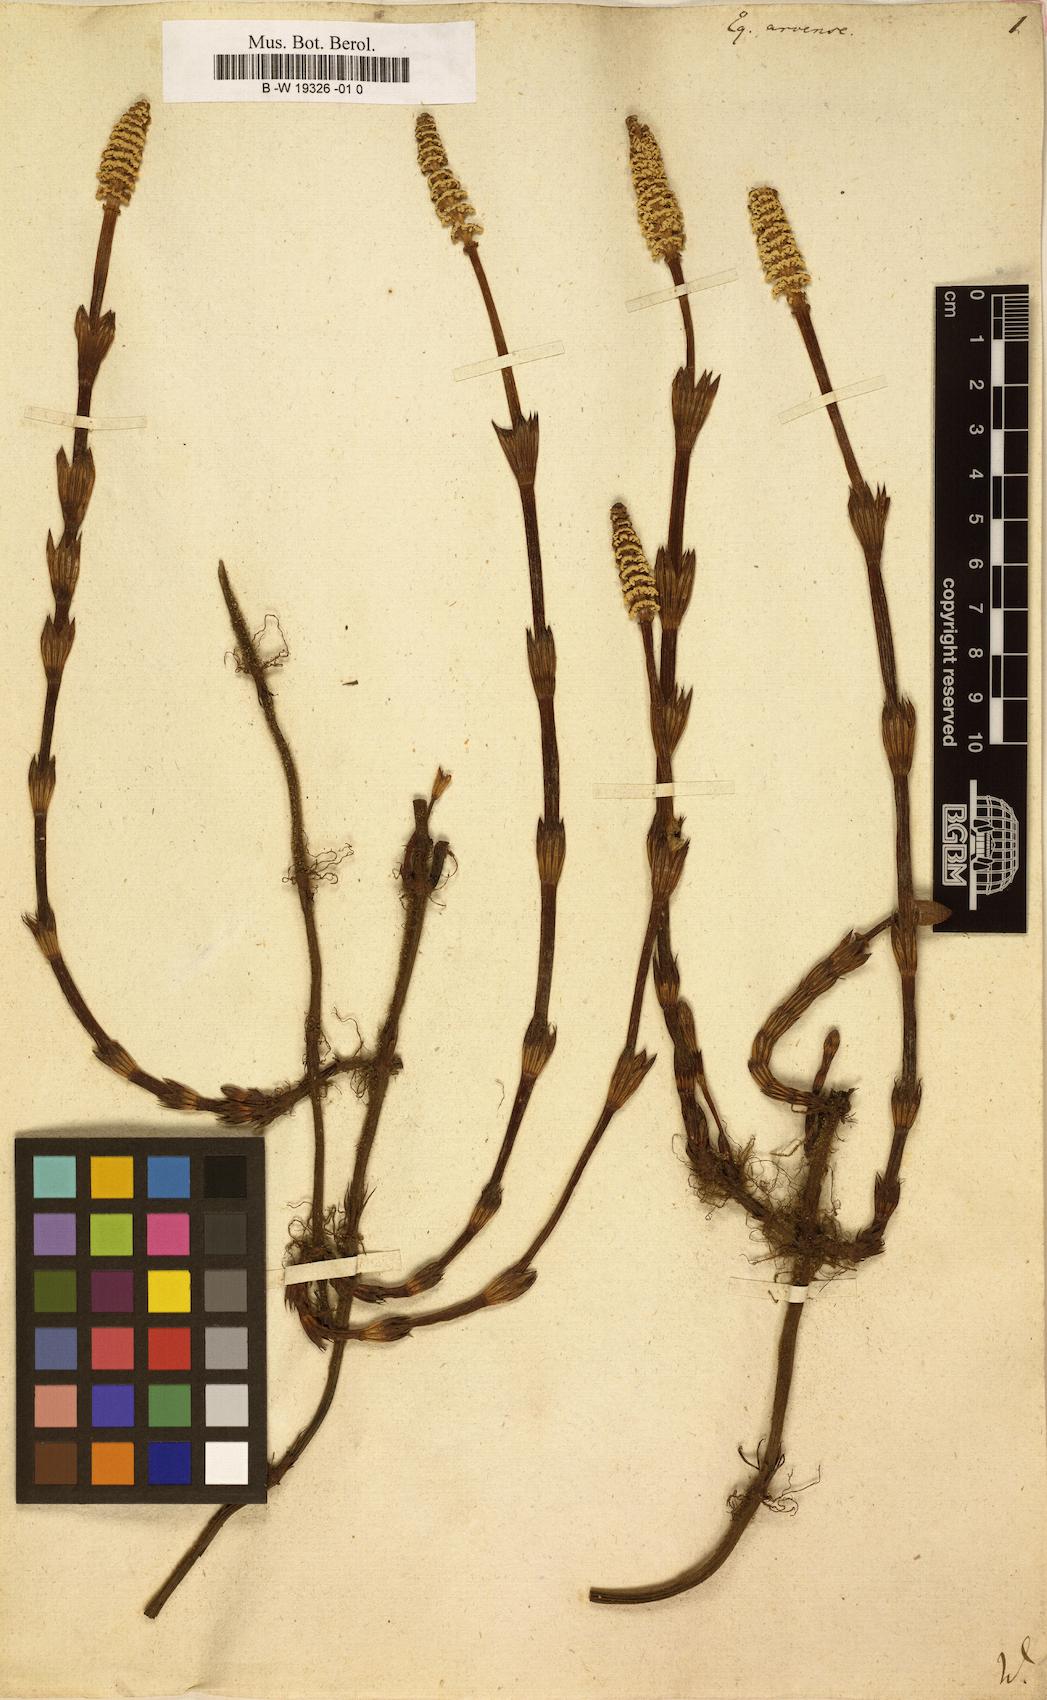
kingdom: Plantae
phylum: Tracheophyta
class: Polypodiopsida
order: Equisetales
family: Equisetaceae
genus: Equisetum
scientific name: Equisetum arvense
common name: Field horsetail
